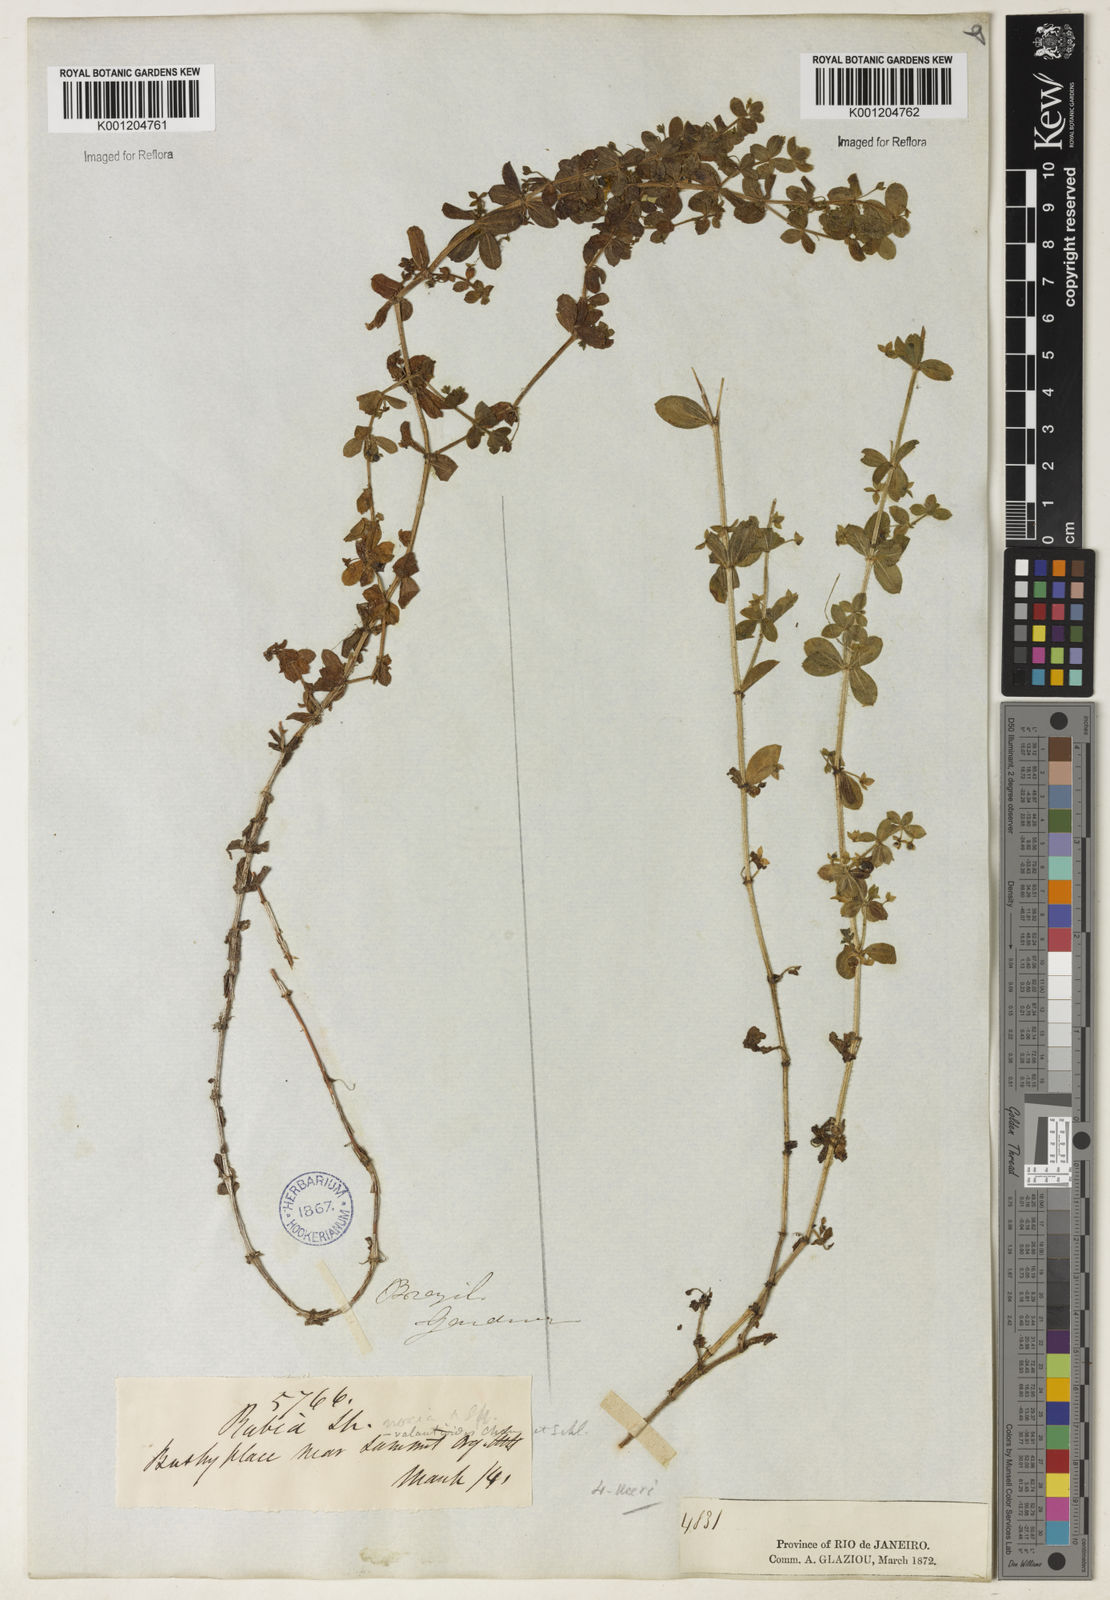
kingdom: Plantae
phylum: Tracheophyta
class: Magnoliopsida
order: Gentianales
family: Rubiaceae
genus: Galium
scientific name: Galium noxium
